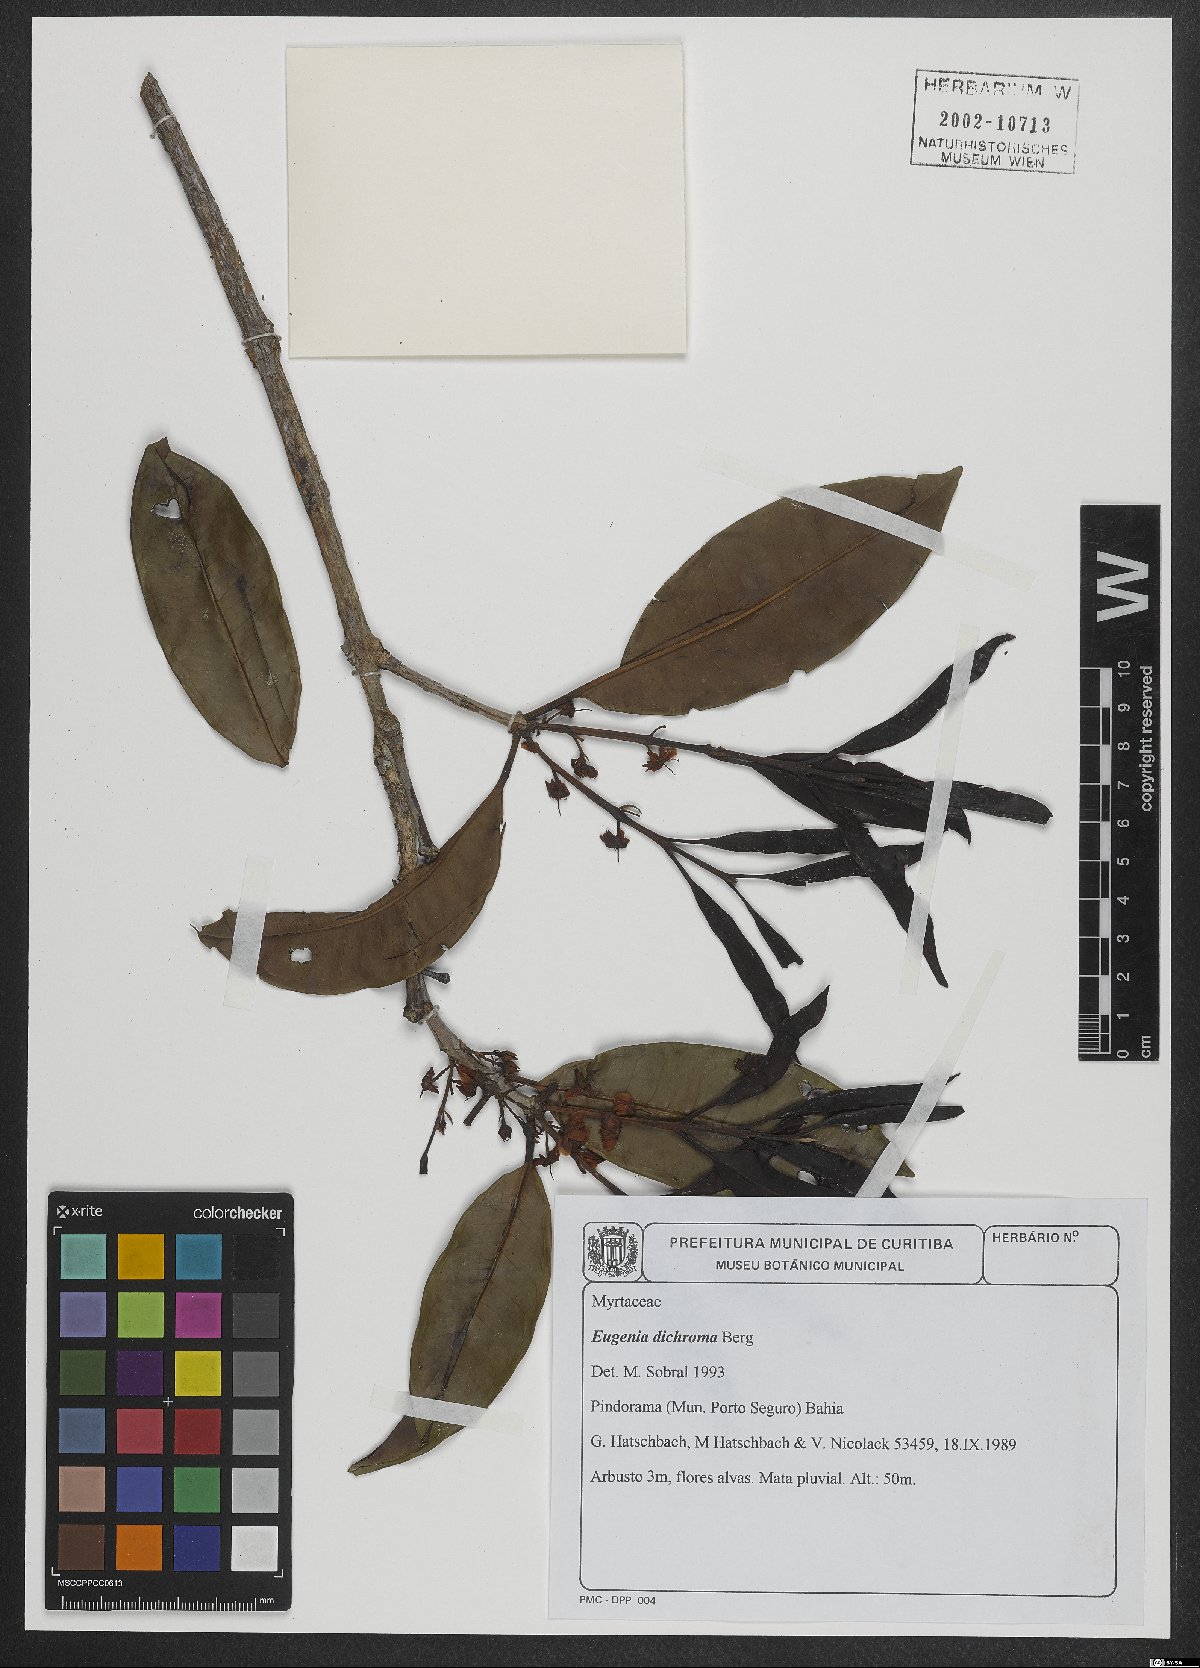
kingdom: Plantae
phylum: Tracheophyta
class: Magnoliopsida
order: Myrtales
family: Myrtaceae
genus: Eugenia
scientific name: Eugenia dichroma
